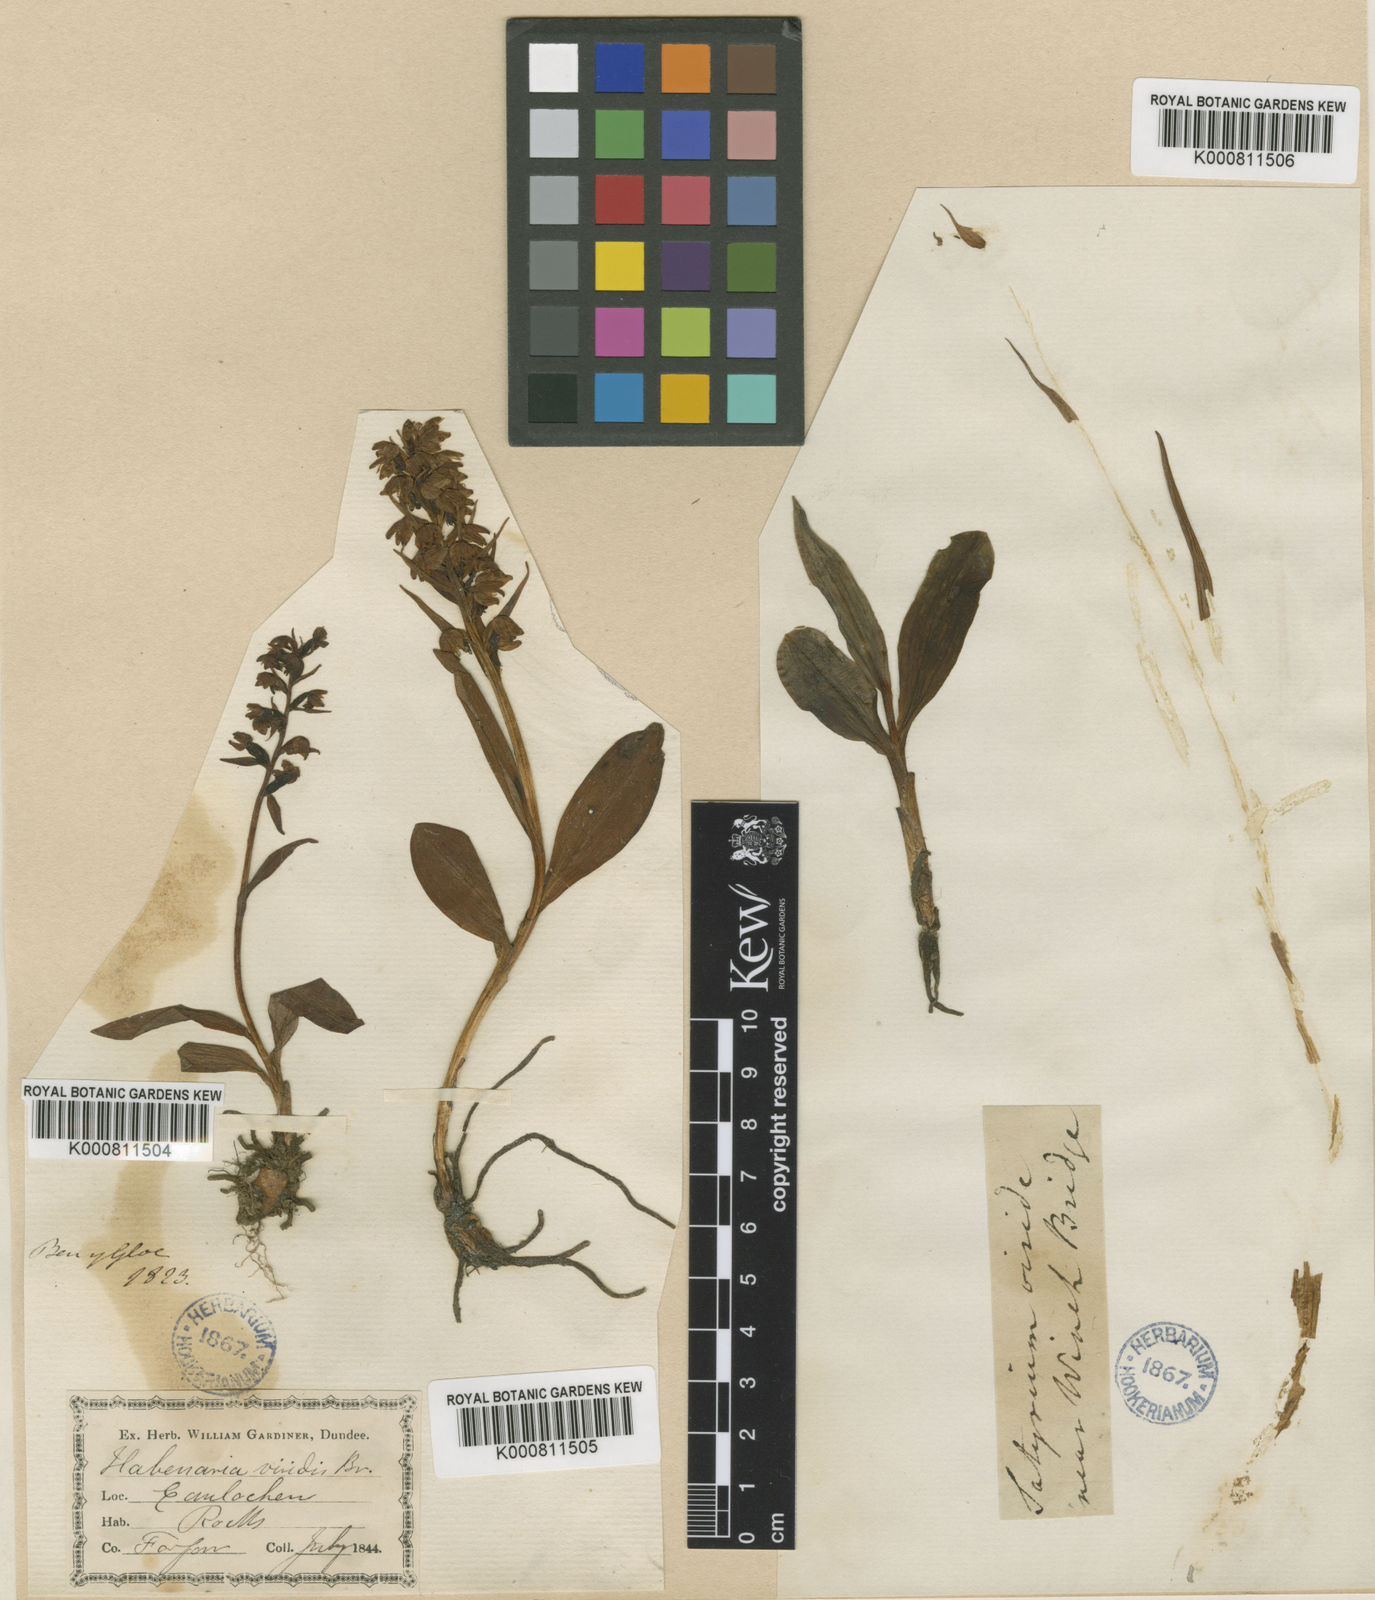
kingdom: Plantae
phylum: Tracheophyta
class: Liliopsida
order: Asparagales
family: Orchidaceae
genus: Dactylorhiza
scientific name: Dactylorhiza viridis
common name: Longbract frog orchid
